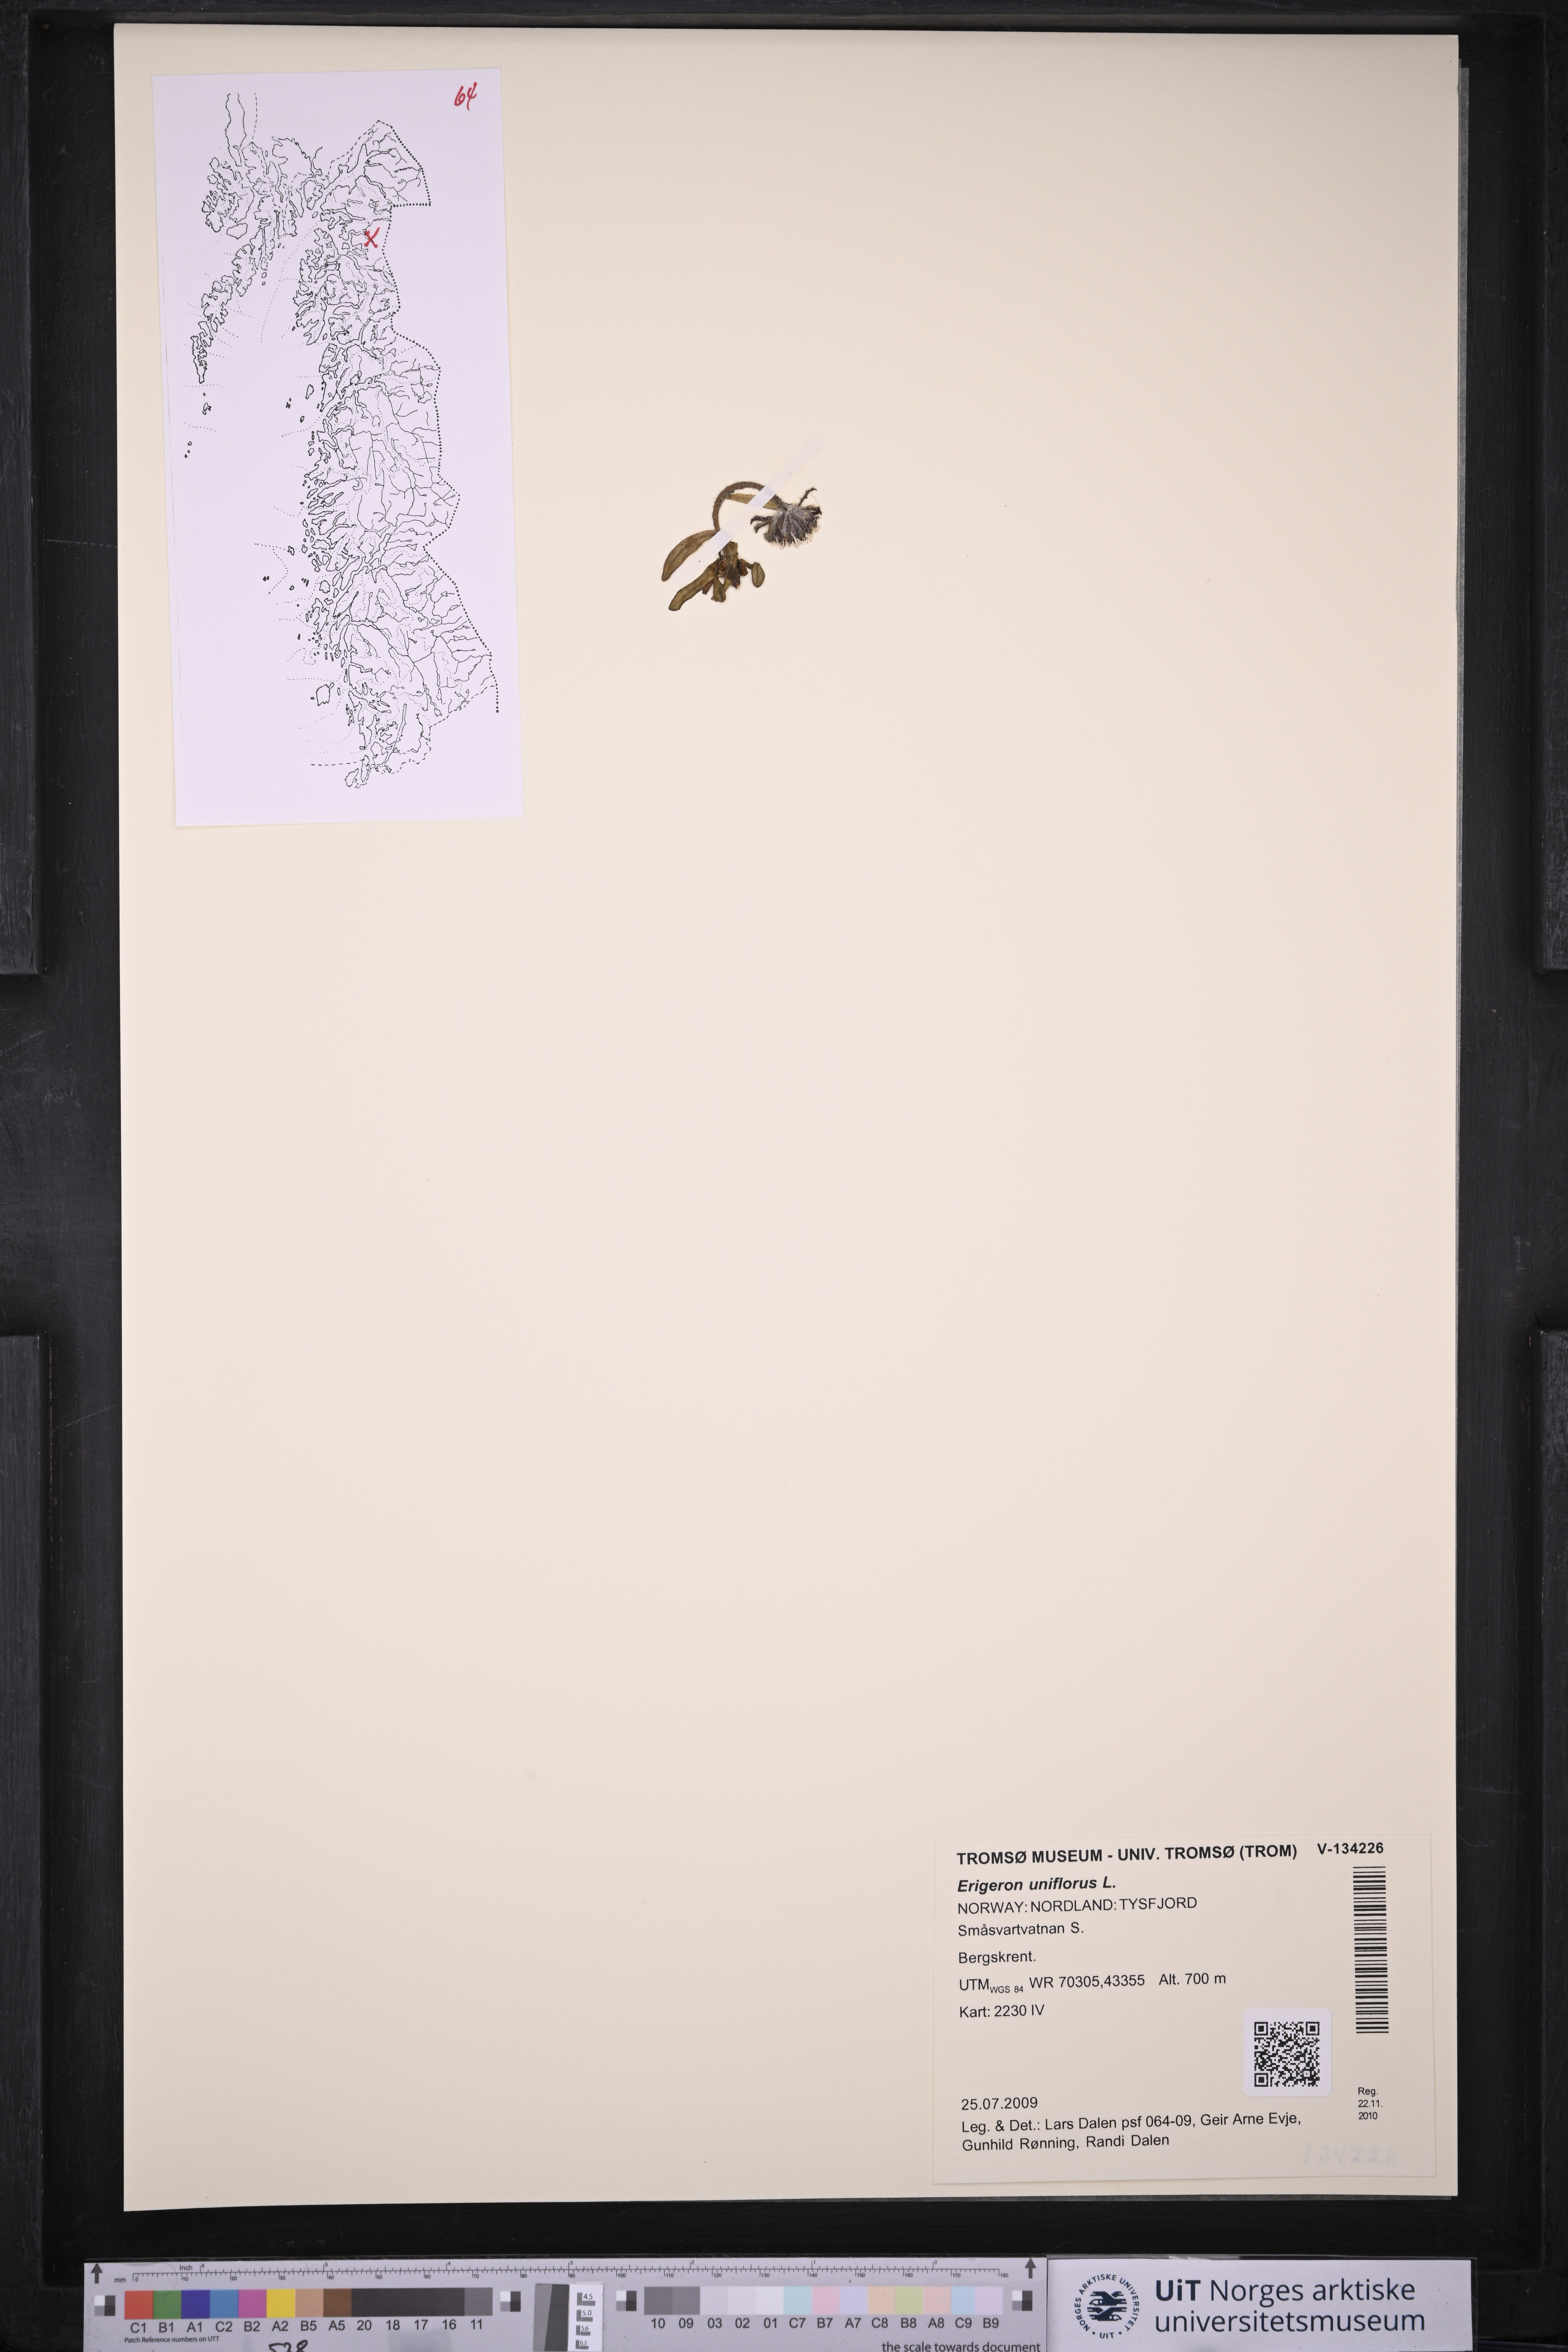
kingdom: Plantae
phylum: Tracheophyta
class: Magnoliopsida
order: Asterales
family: Asteraceae
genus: Erigeron
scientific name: Erigeron uniflorus
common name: Northern daisy
